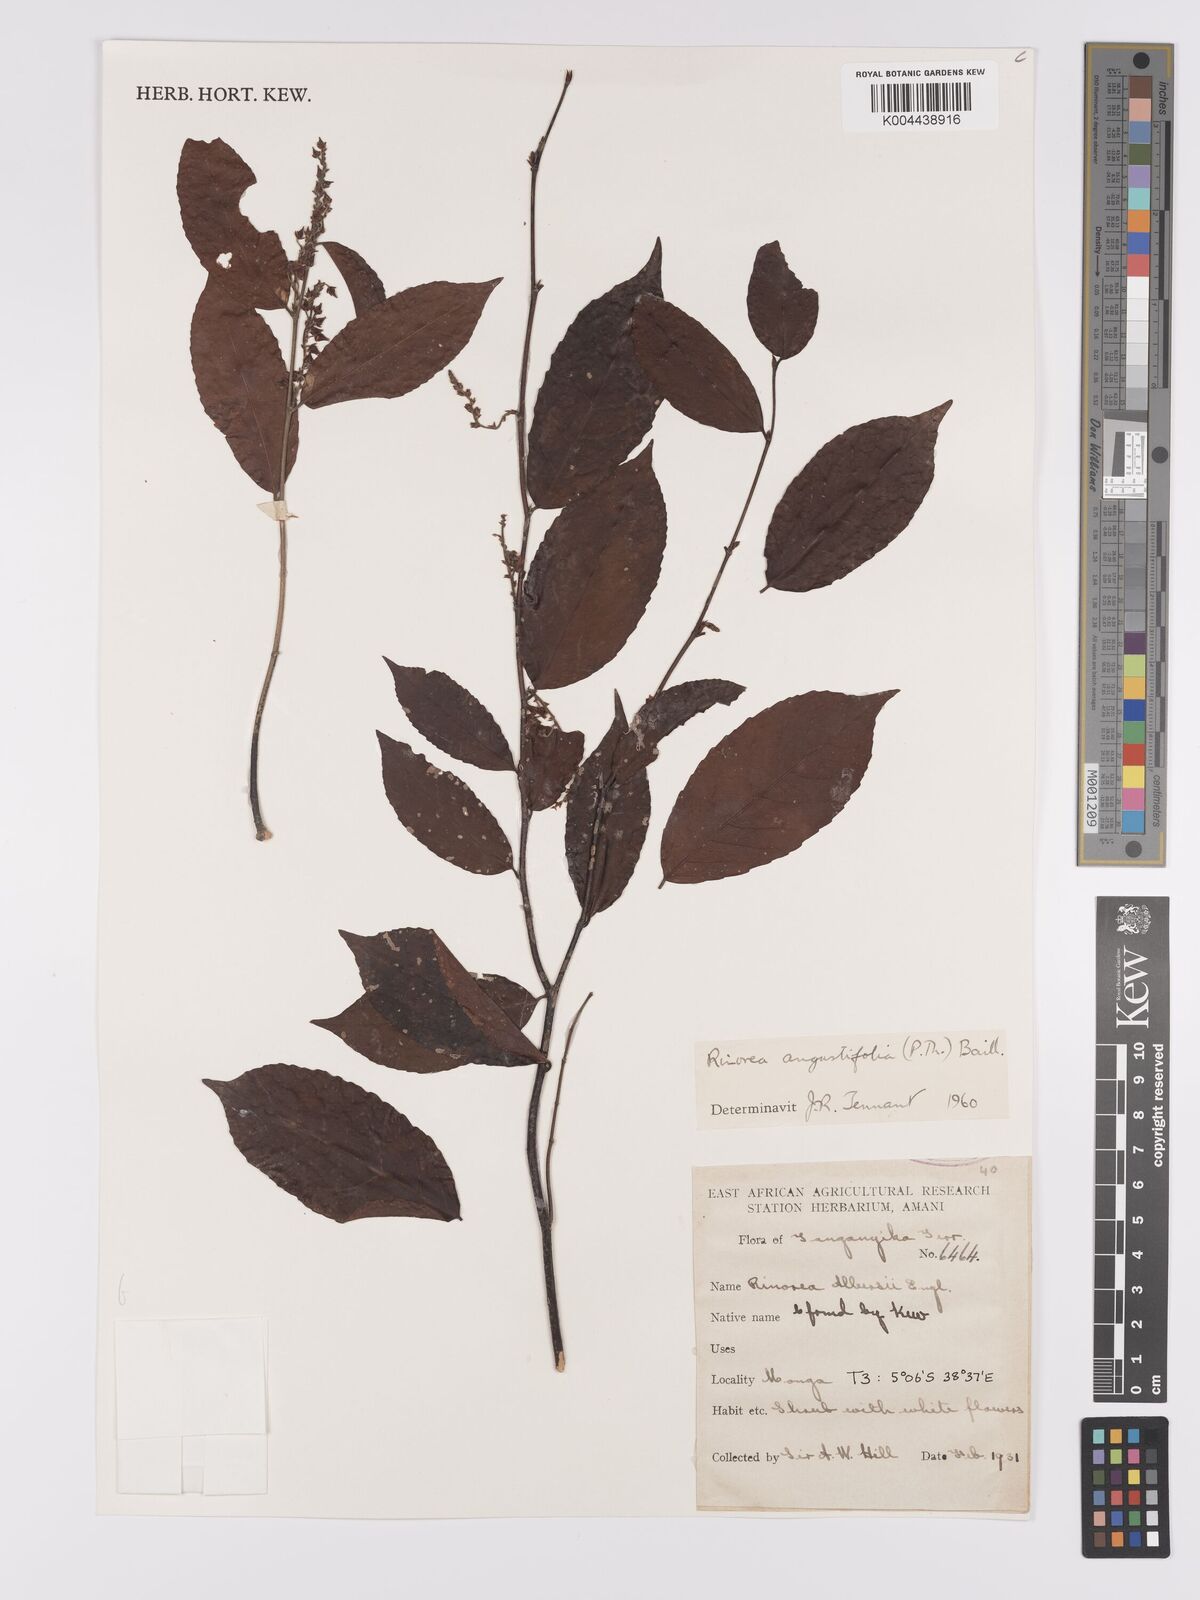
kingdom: Plantae
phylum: Tracheophyta
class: Magnoliopsida
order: Malpighiales
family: Violaceae
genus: Rinorea
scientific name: Rinorea angustifolia
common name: White violet-bush
